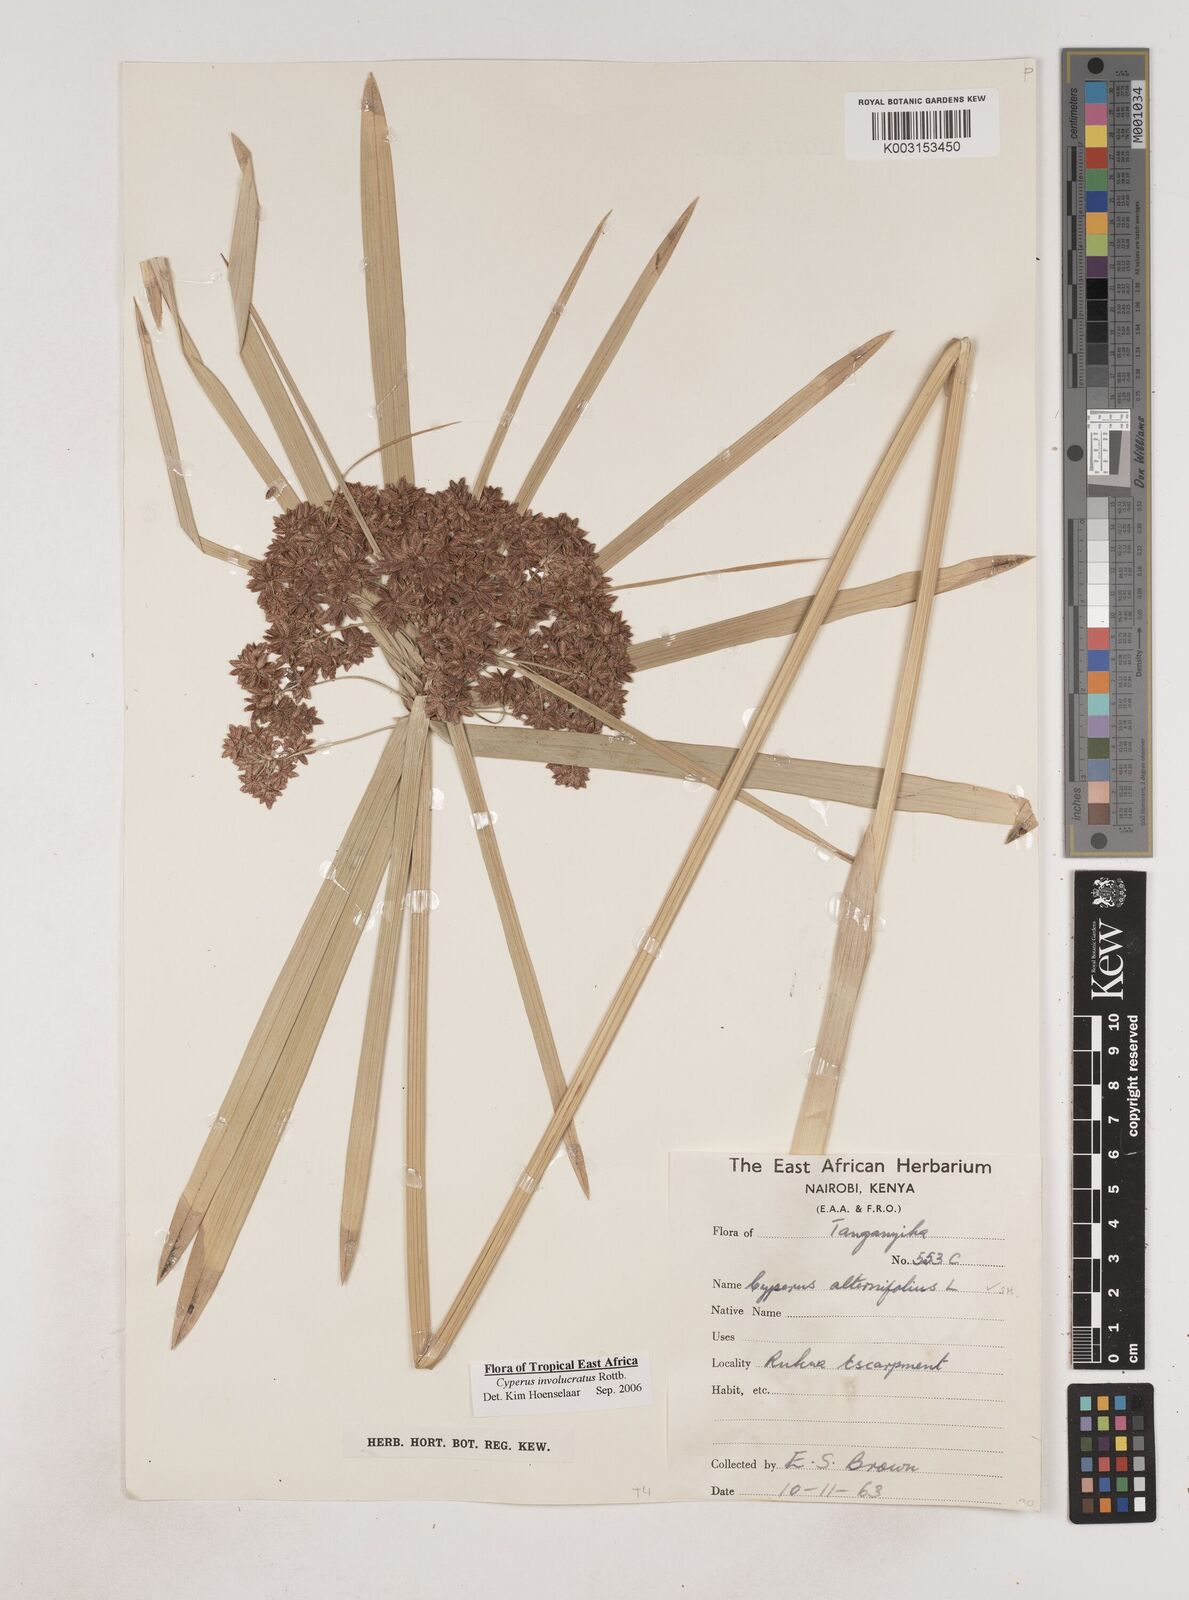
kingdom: Plantae
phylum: Tracheophyta
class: Liliopsida
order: Poales
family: Cyperaceae
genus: Cyperus
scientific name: Cyperus alternifolius
